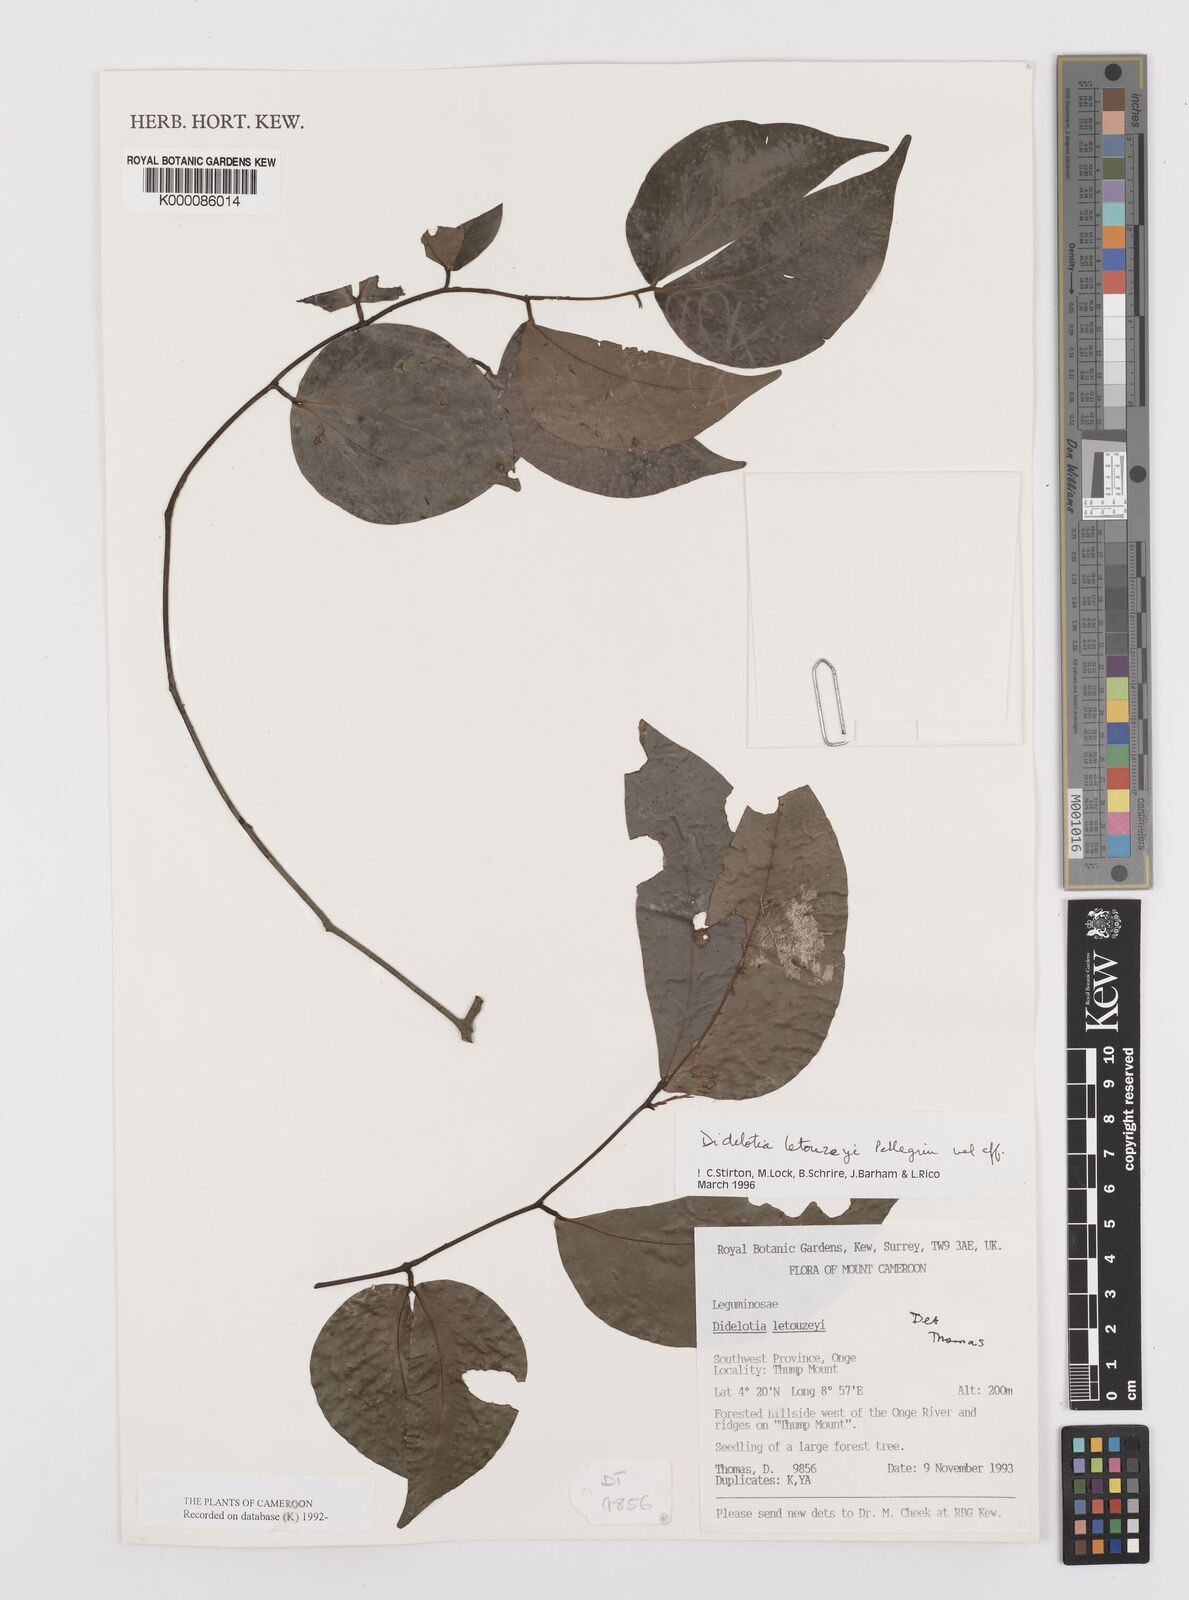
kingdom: Plantae
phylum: Tracheophyta
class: Magnoliopsida
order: Fabales
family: Fabaceae
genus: Didelotia
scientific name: Didelotia letouzeyi
